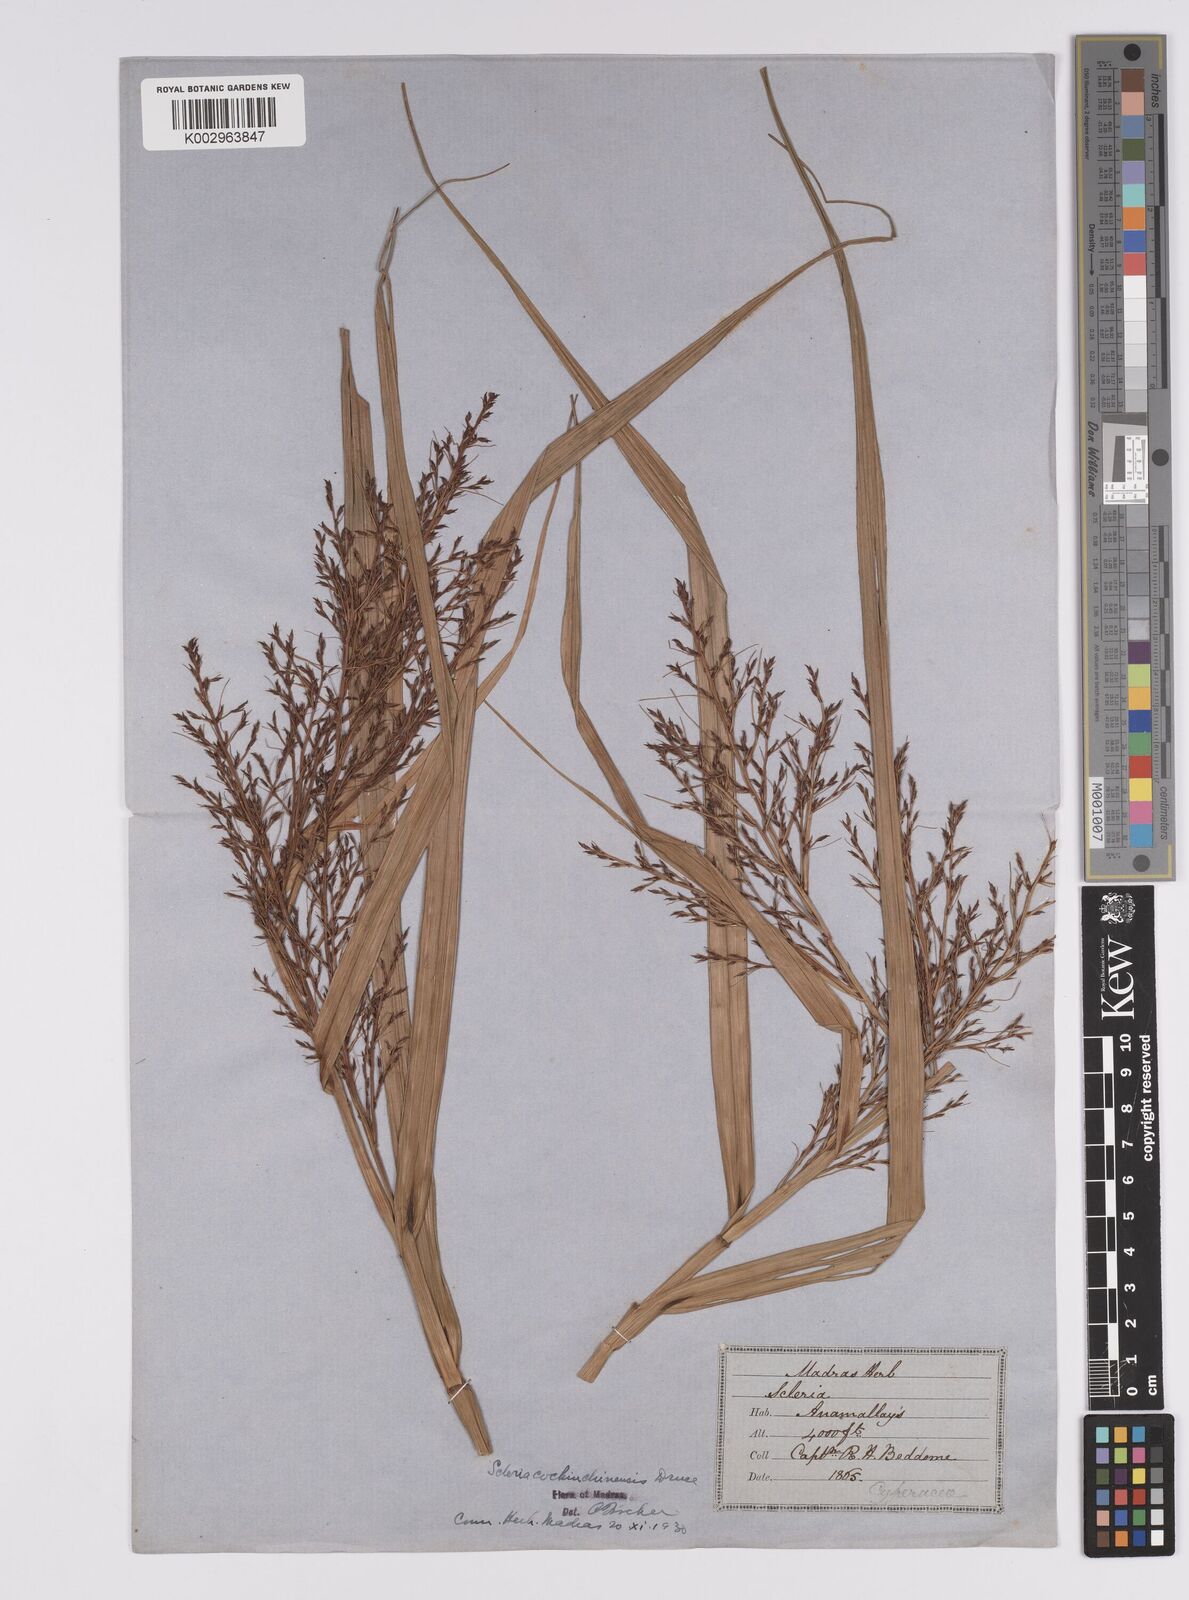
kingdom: Plantae
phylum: Tracheophyta
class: Liliopsida
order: Poales
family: Cyperaceae
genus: Scleria
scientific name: Scleria terrestris
